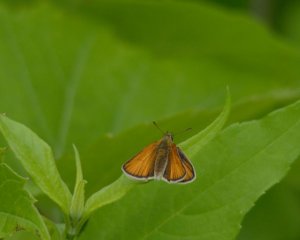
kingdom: Animalia
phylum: Arthropoda
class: Insecta
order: Lepidoptera
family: Hesperiidae
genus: Thymelicus
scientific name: Thymelicus lineola
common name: European Skipper
